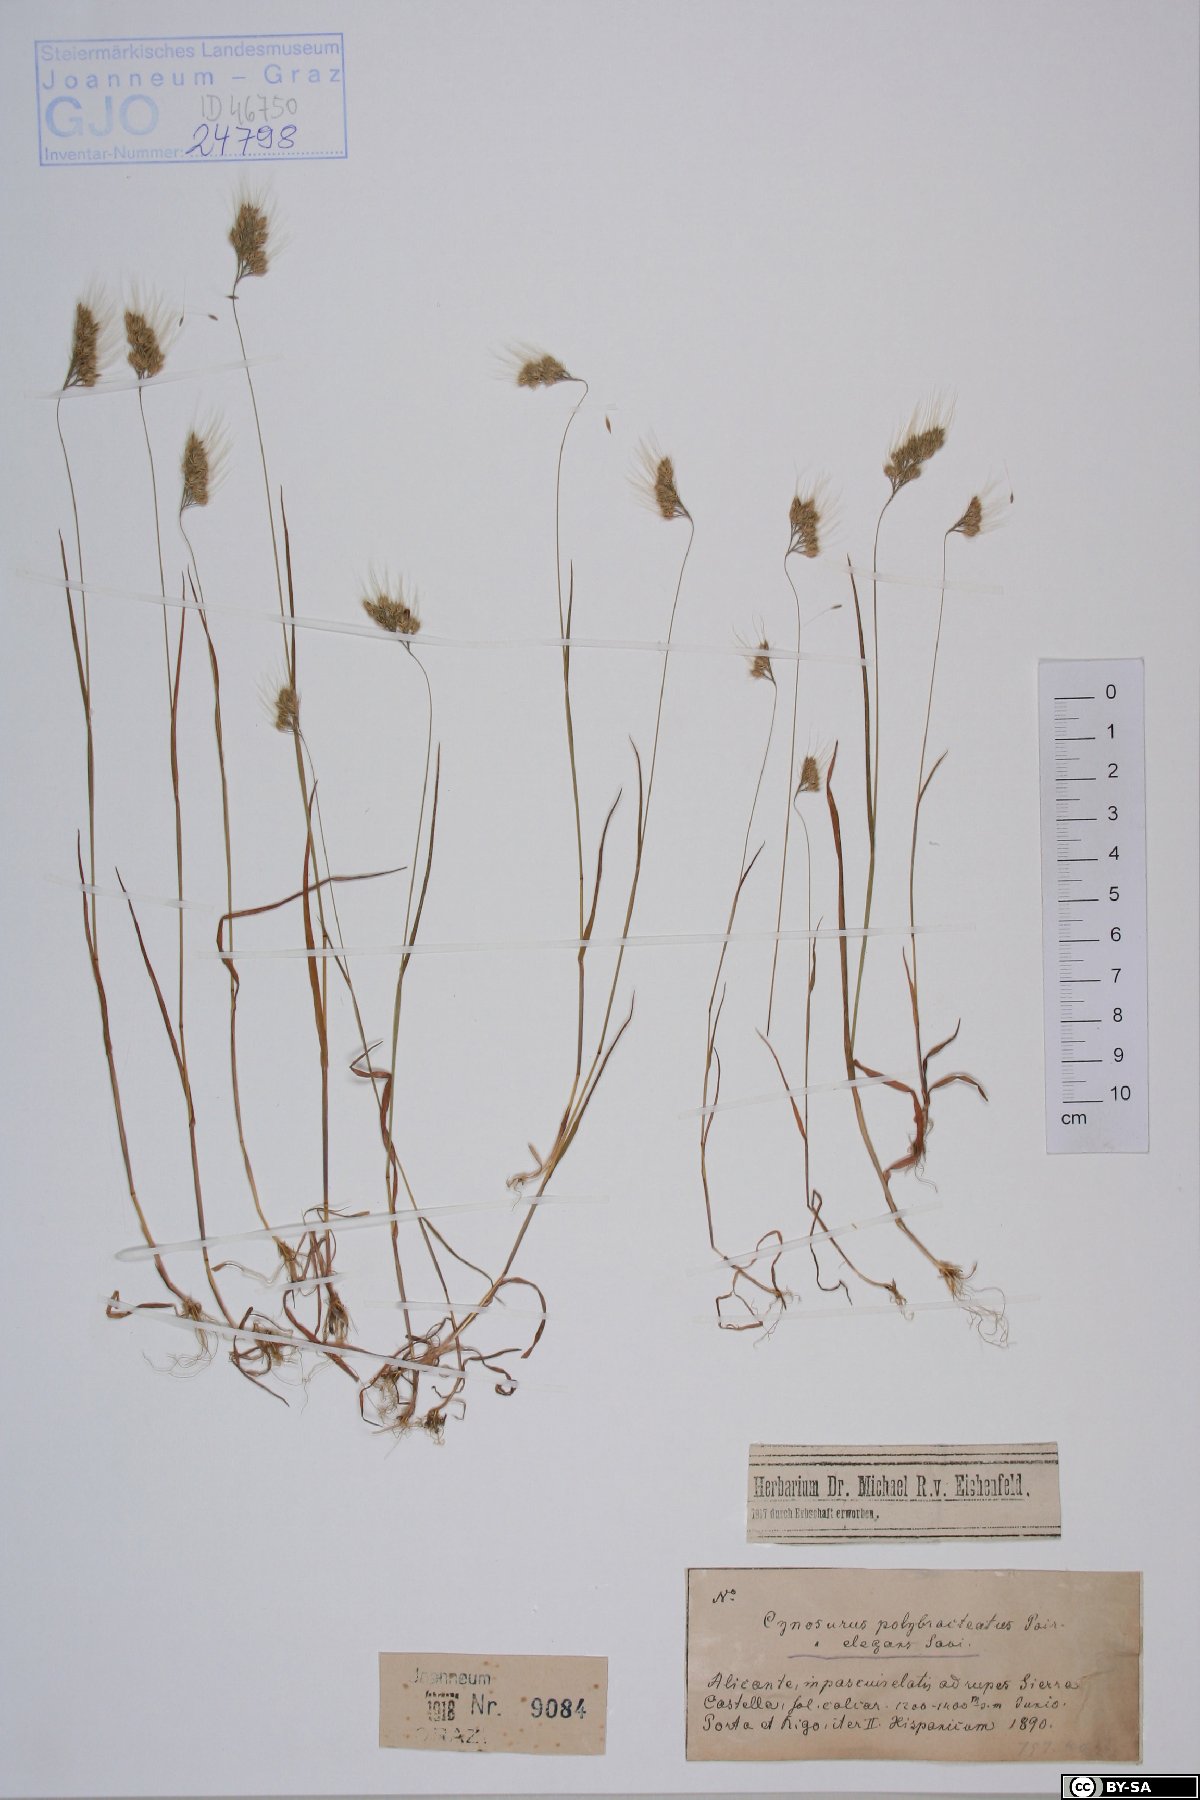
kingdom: Plantae
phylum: Tracheophyta
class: Liliopsida
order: Poales
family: Poaceae
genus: Cynosurus
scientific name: Cynosurus polybracteatus
